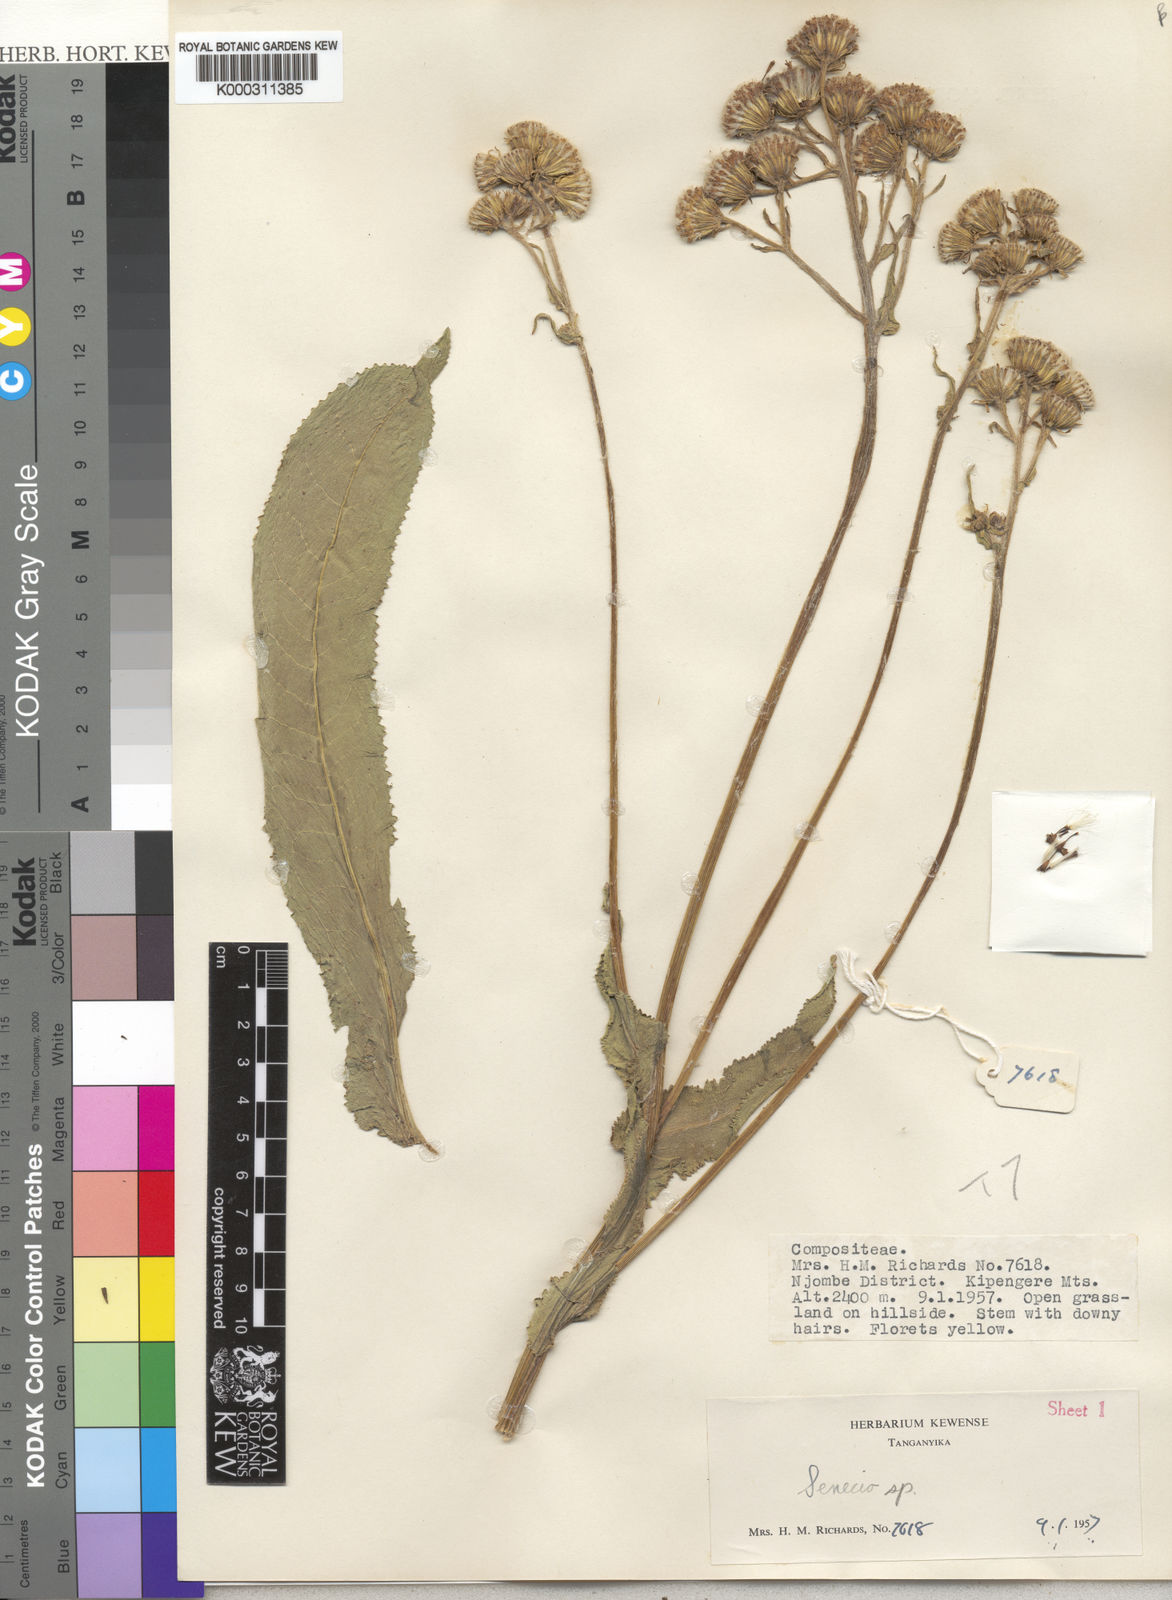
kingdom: Plantae
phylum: Tracheophyta
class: Magnoliopsida
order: Asterales
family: Asteraceae
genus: Senecio
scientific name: Senecio immixtus
